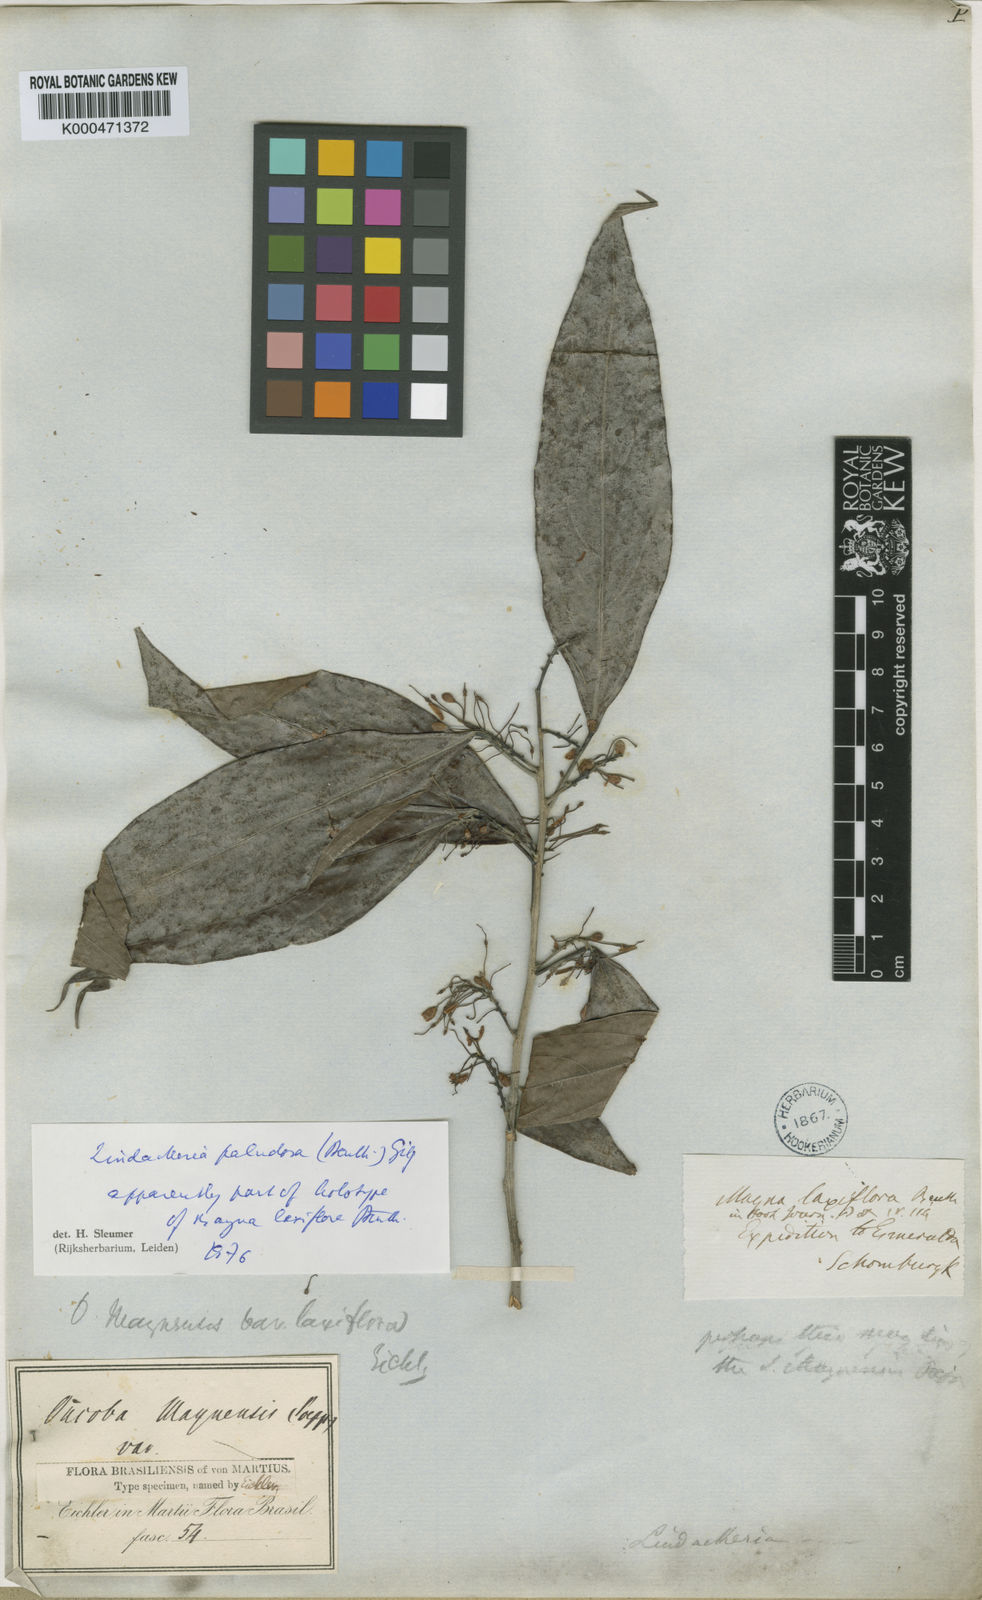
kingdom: Plantae
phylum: Tracheophyta
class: Magnoliopsida
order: Malpighiales
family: Achariaceae
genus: Lindackeria
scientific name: Lindackeria paludosa
